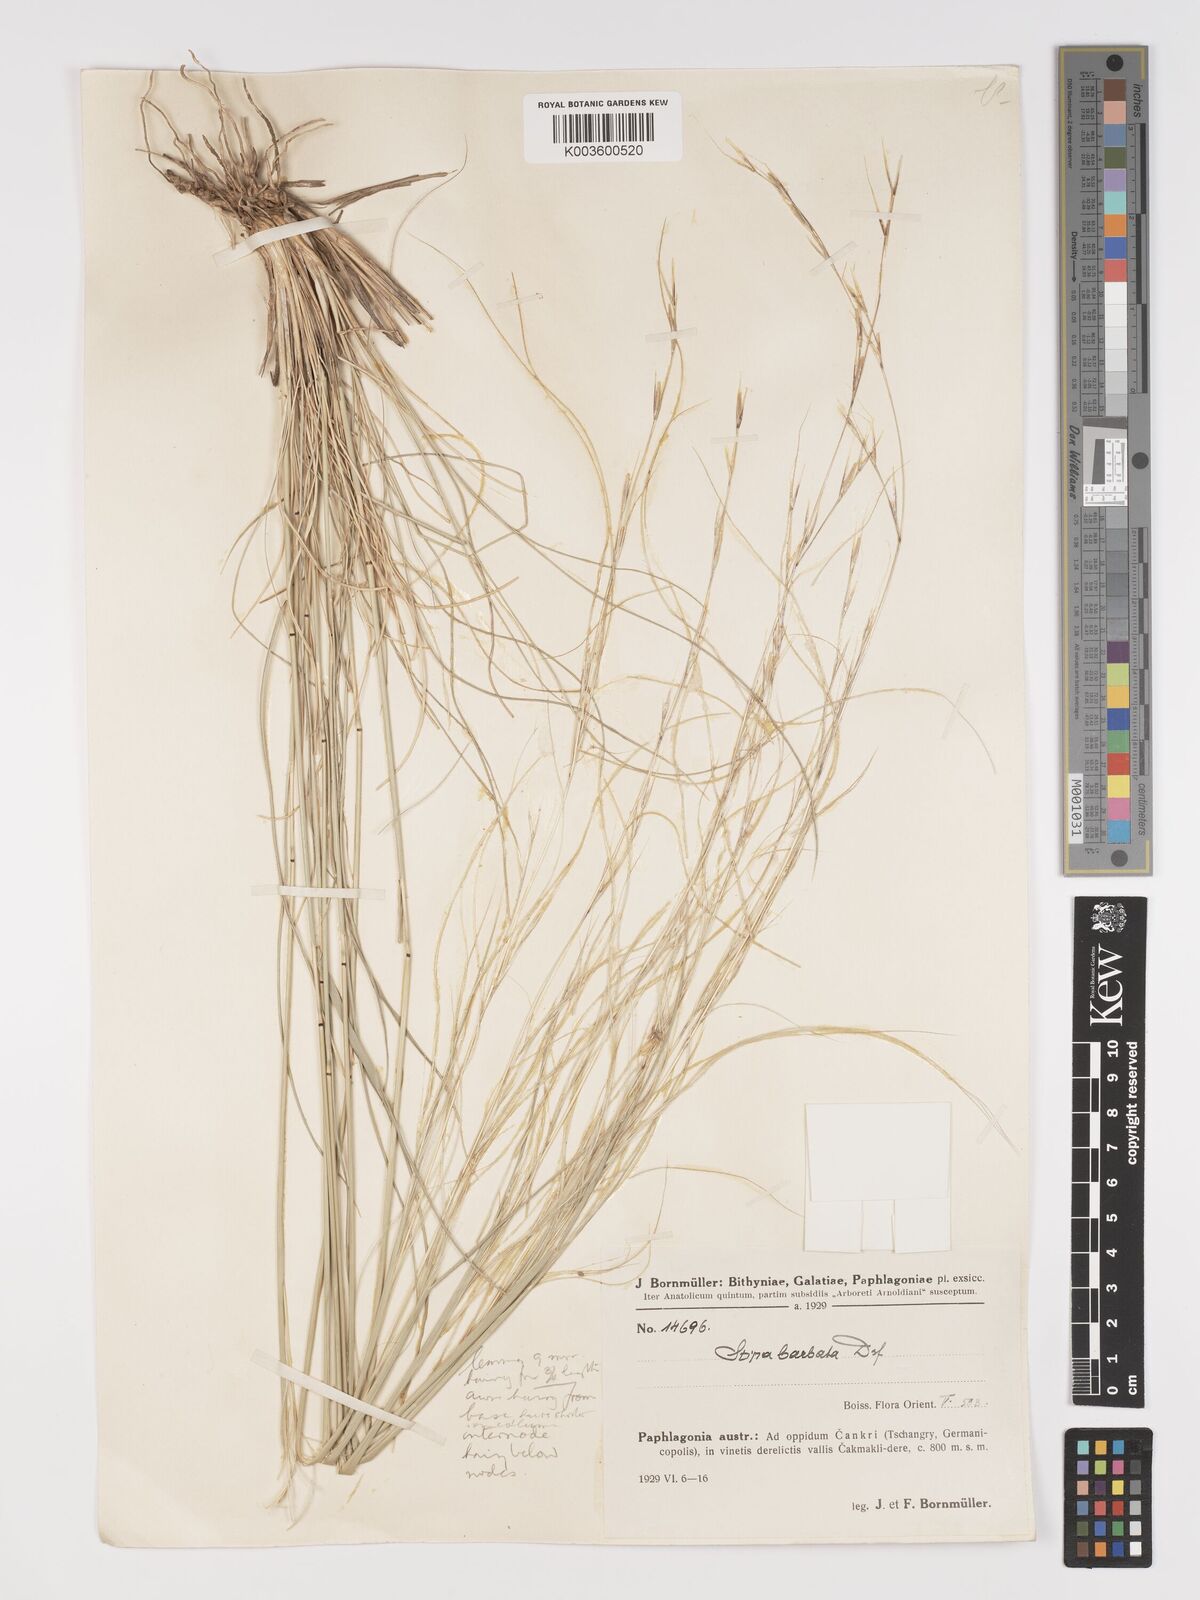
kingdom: Plantae
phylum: Tracheophyta
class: Liliopsida
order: Poales
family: Poaceae
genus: Stipa
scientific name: Stipa barbata
